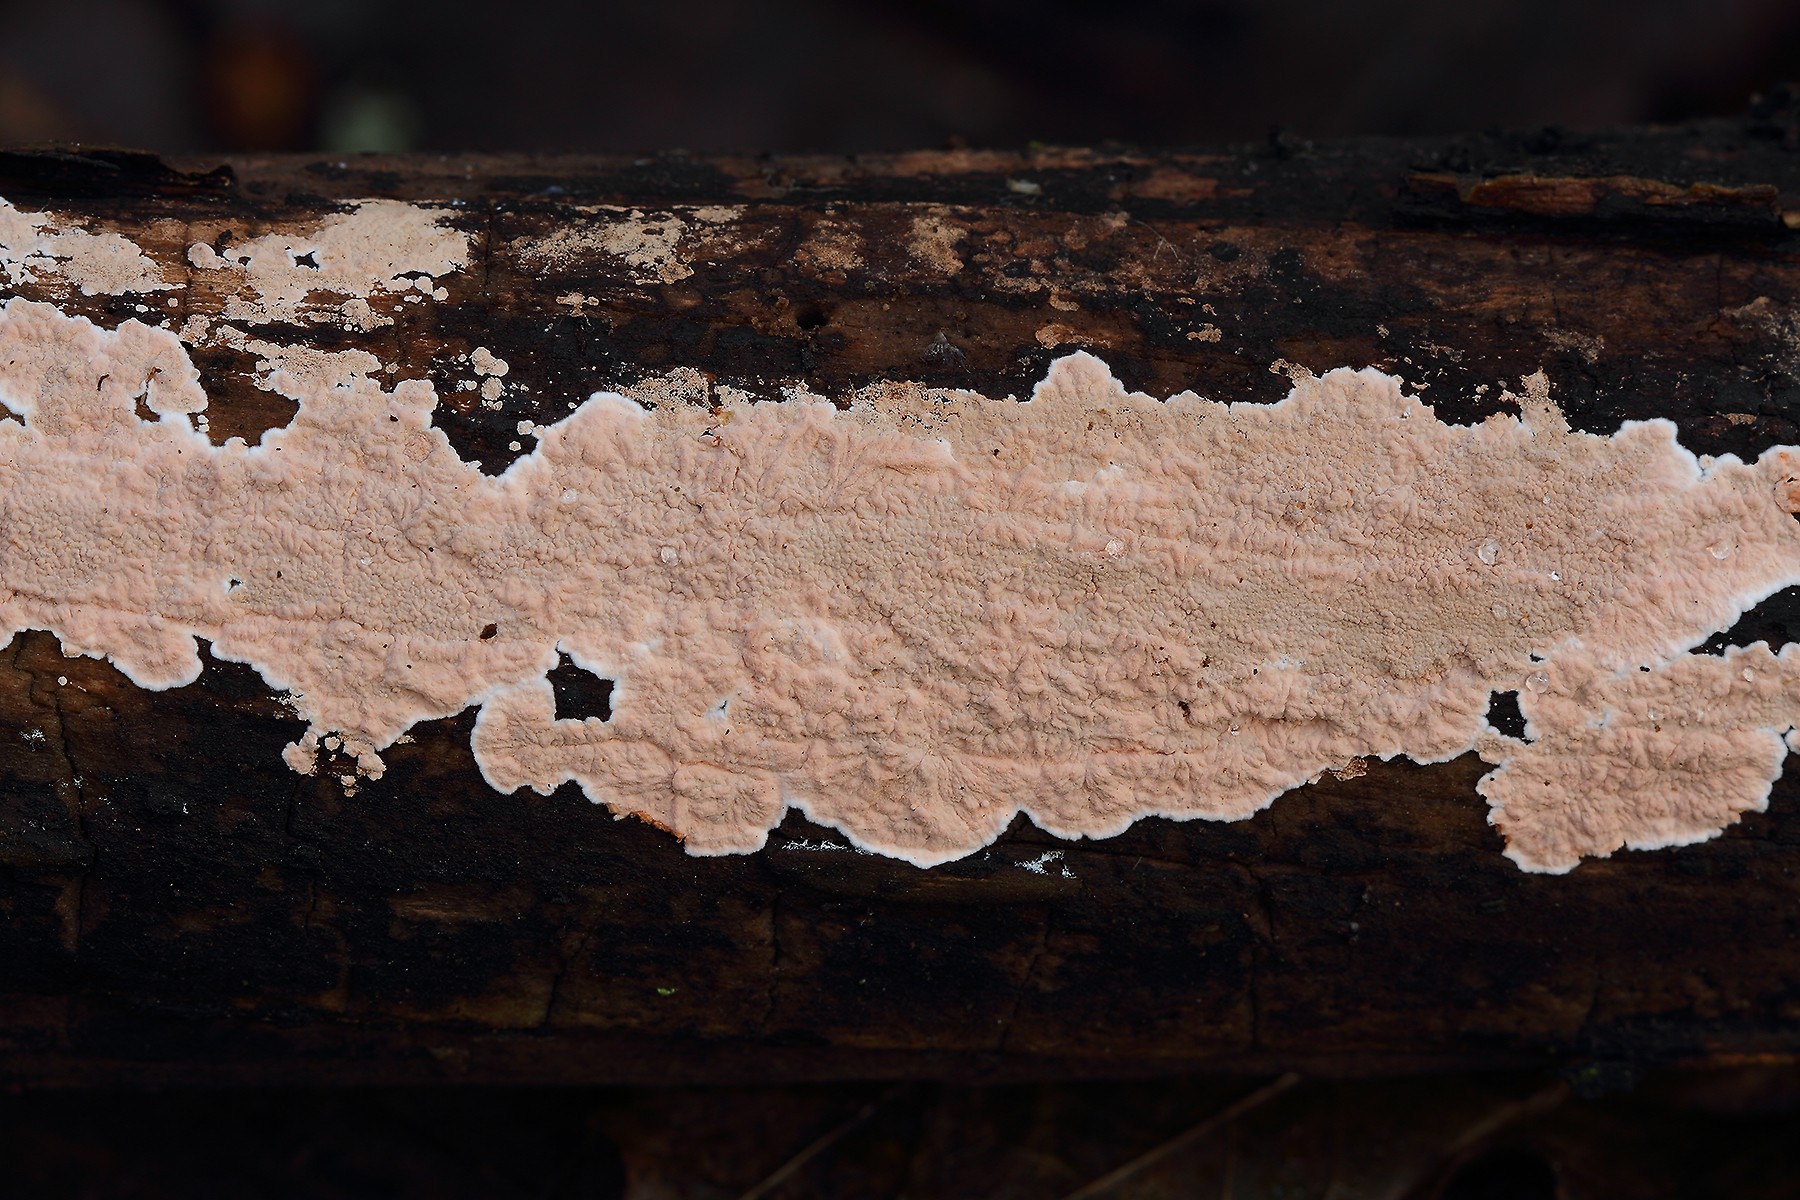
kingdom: Fungi
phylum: Basidiomycota
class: Agaricomycetes
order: Corticiales
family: Corticiaceae
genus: Corticium
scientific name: Corticium roseum
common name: rosa barkskind
